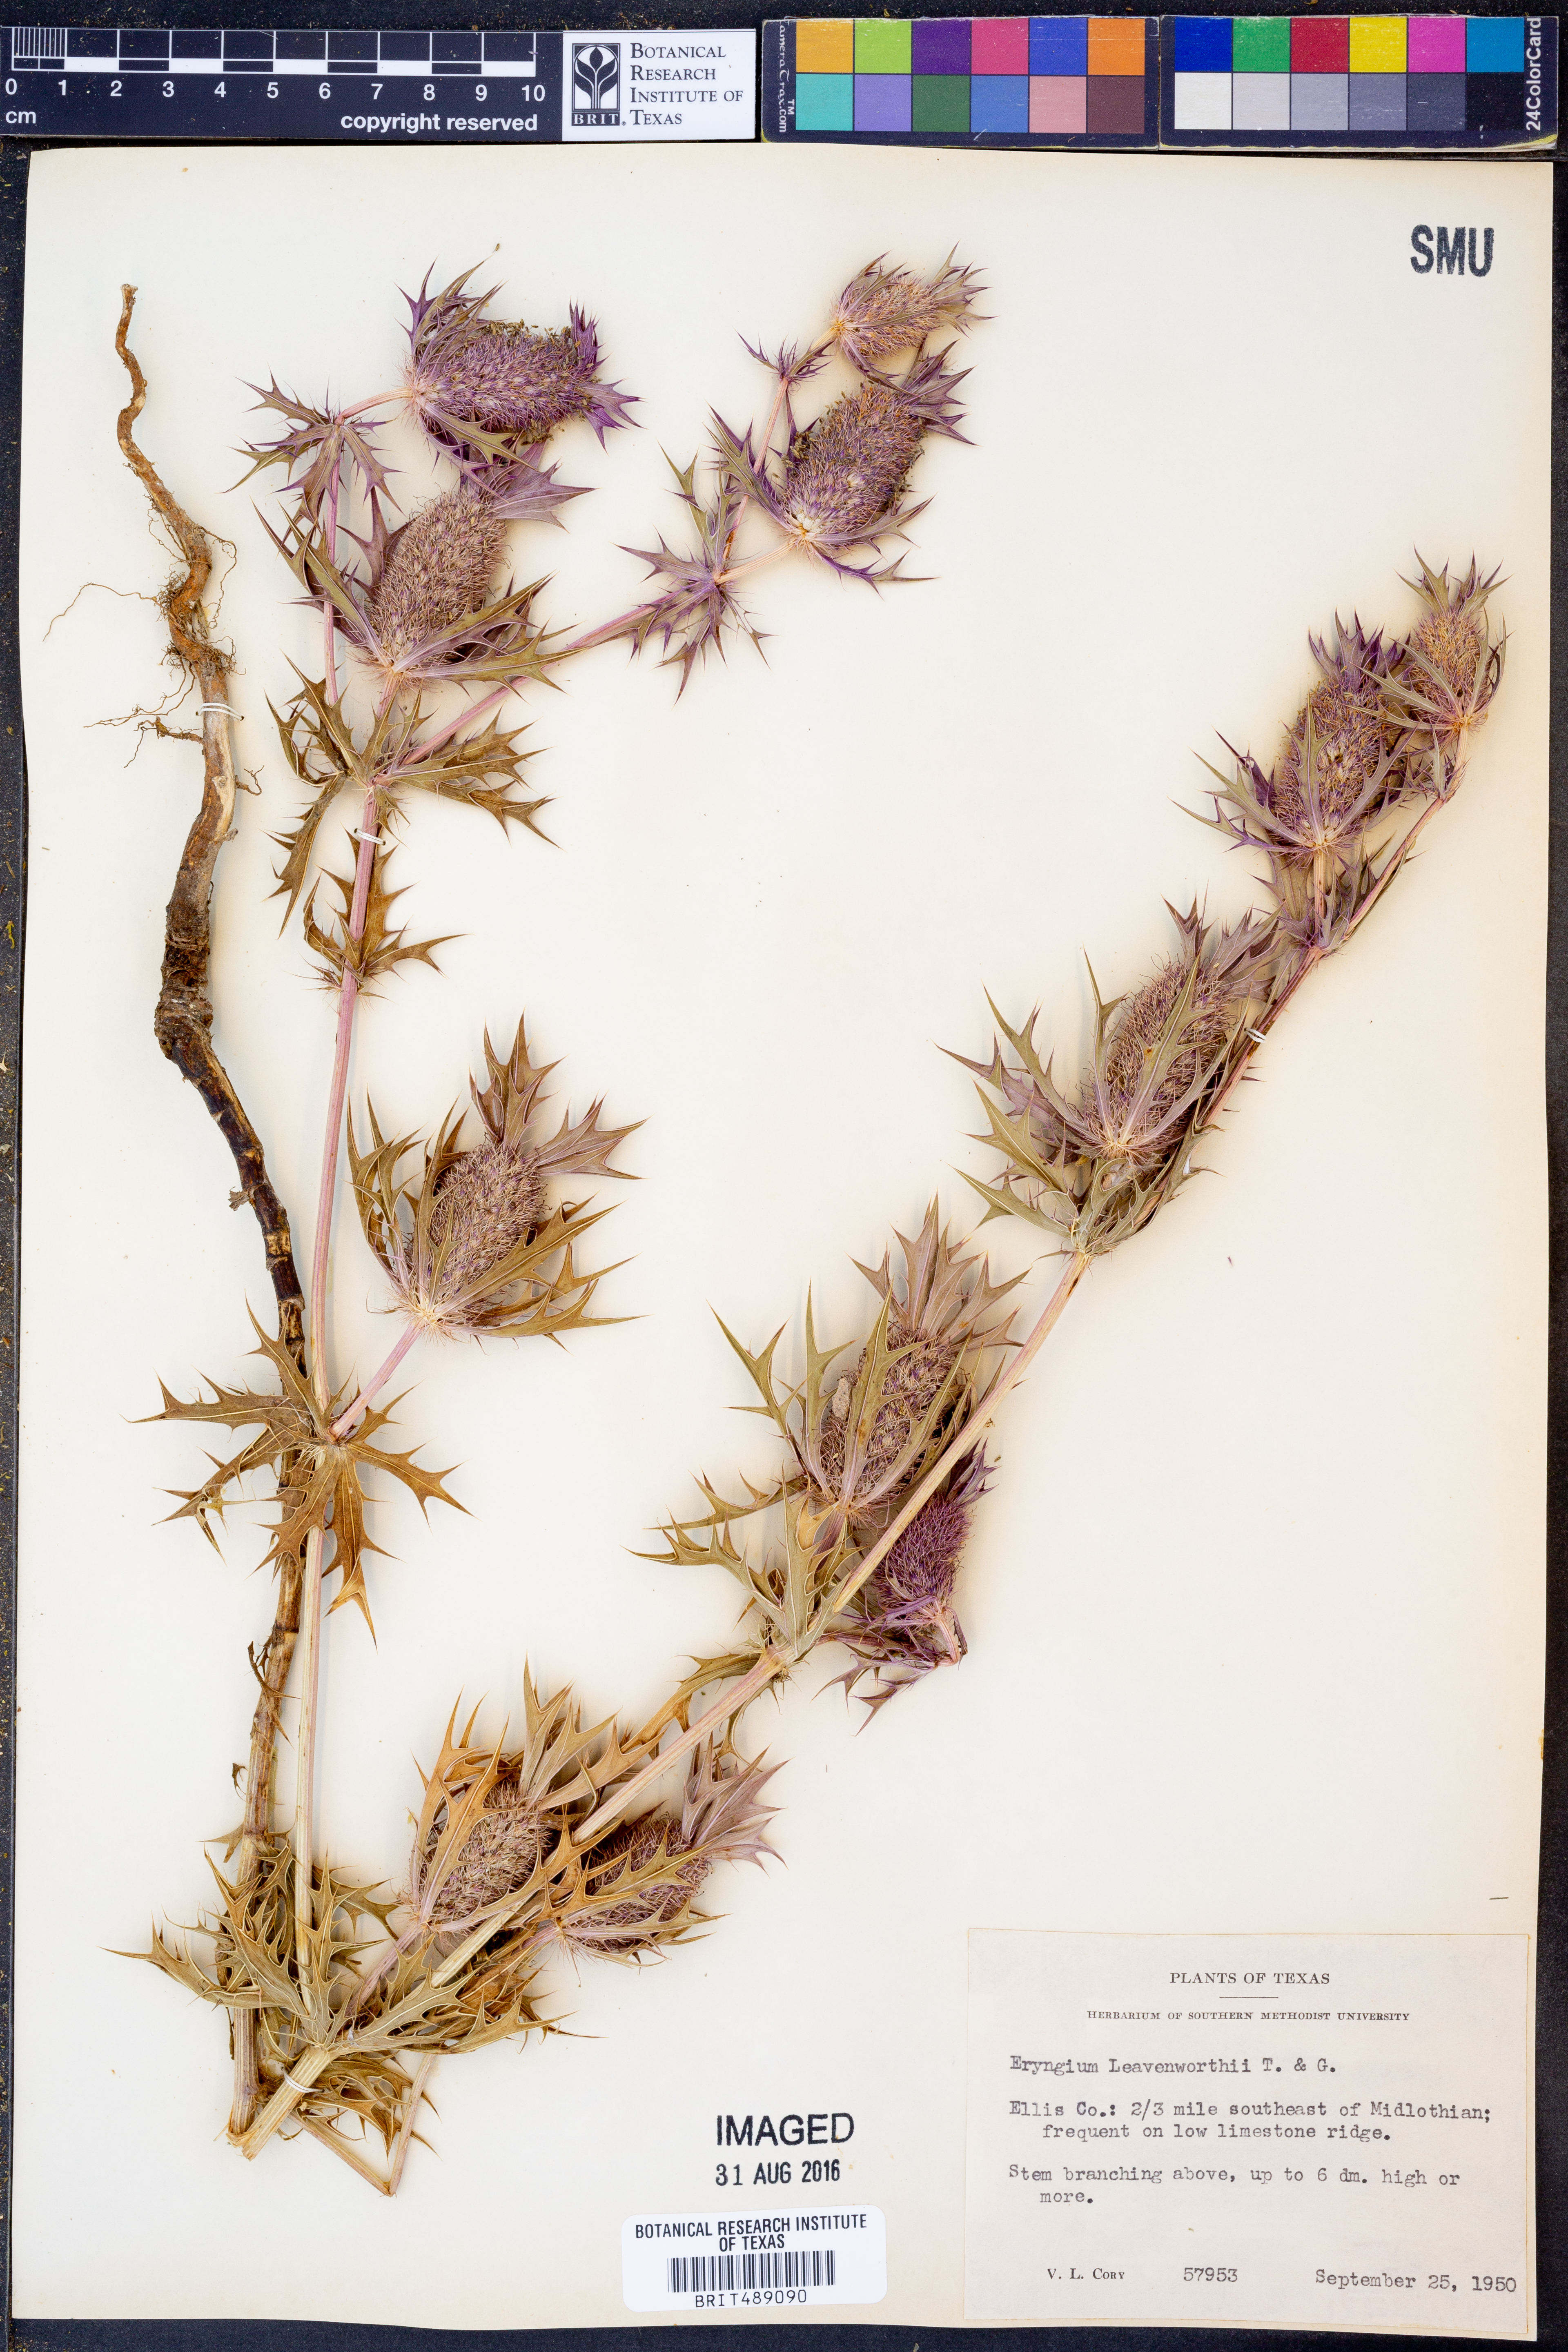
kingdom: Plantae
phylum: Tracheophyta
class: Magnoliopsida
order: Apiales
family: Apiaceae
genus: Eryngium
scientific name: Eryngium leavenworthii
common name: Leavenworth's eryngo
